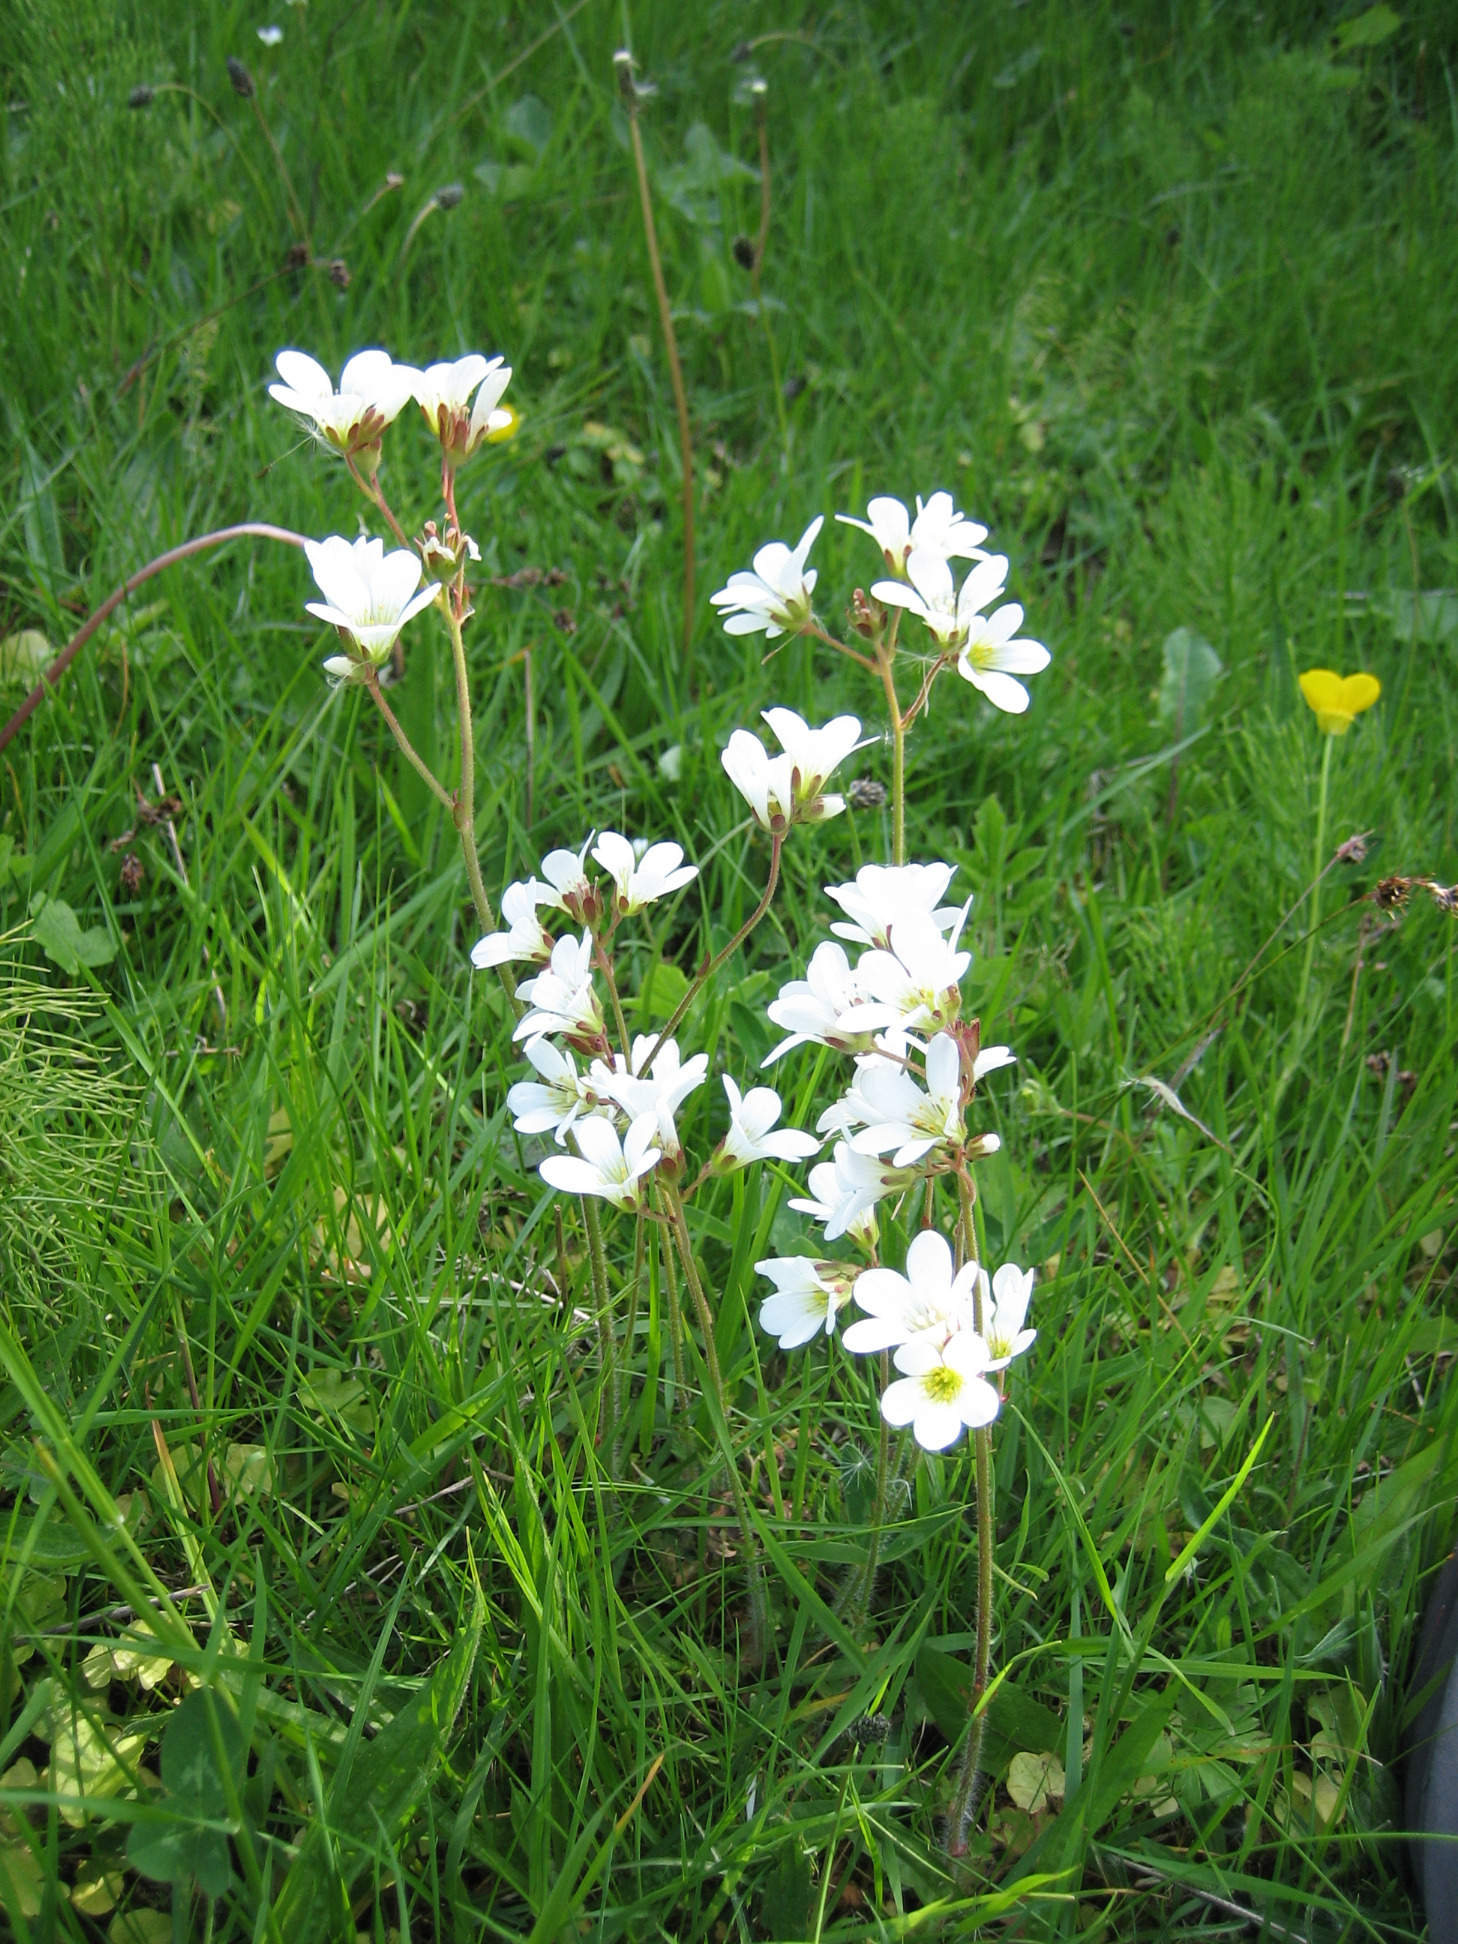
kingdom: Plantae
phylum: Tracheophyta
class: Magnoliopsida
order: Saxifragales
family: Saxifragaceae
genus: Saxifraga
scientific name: Saxifraga granulata
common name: Kornet stenbræk
